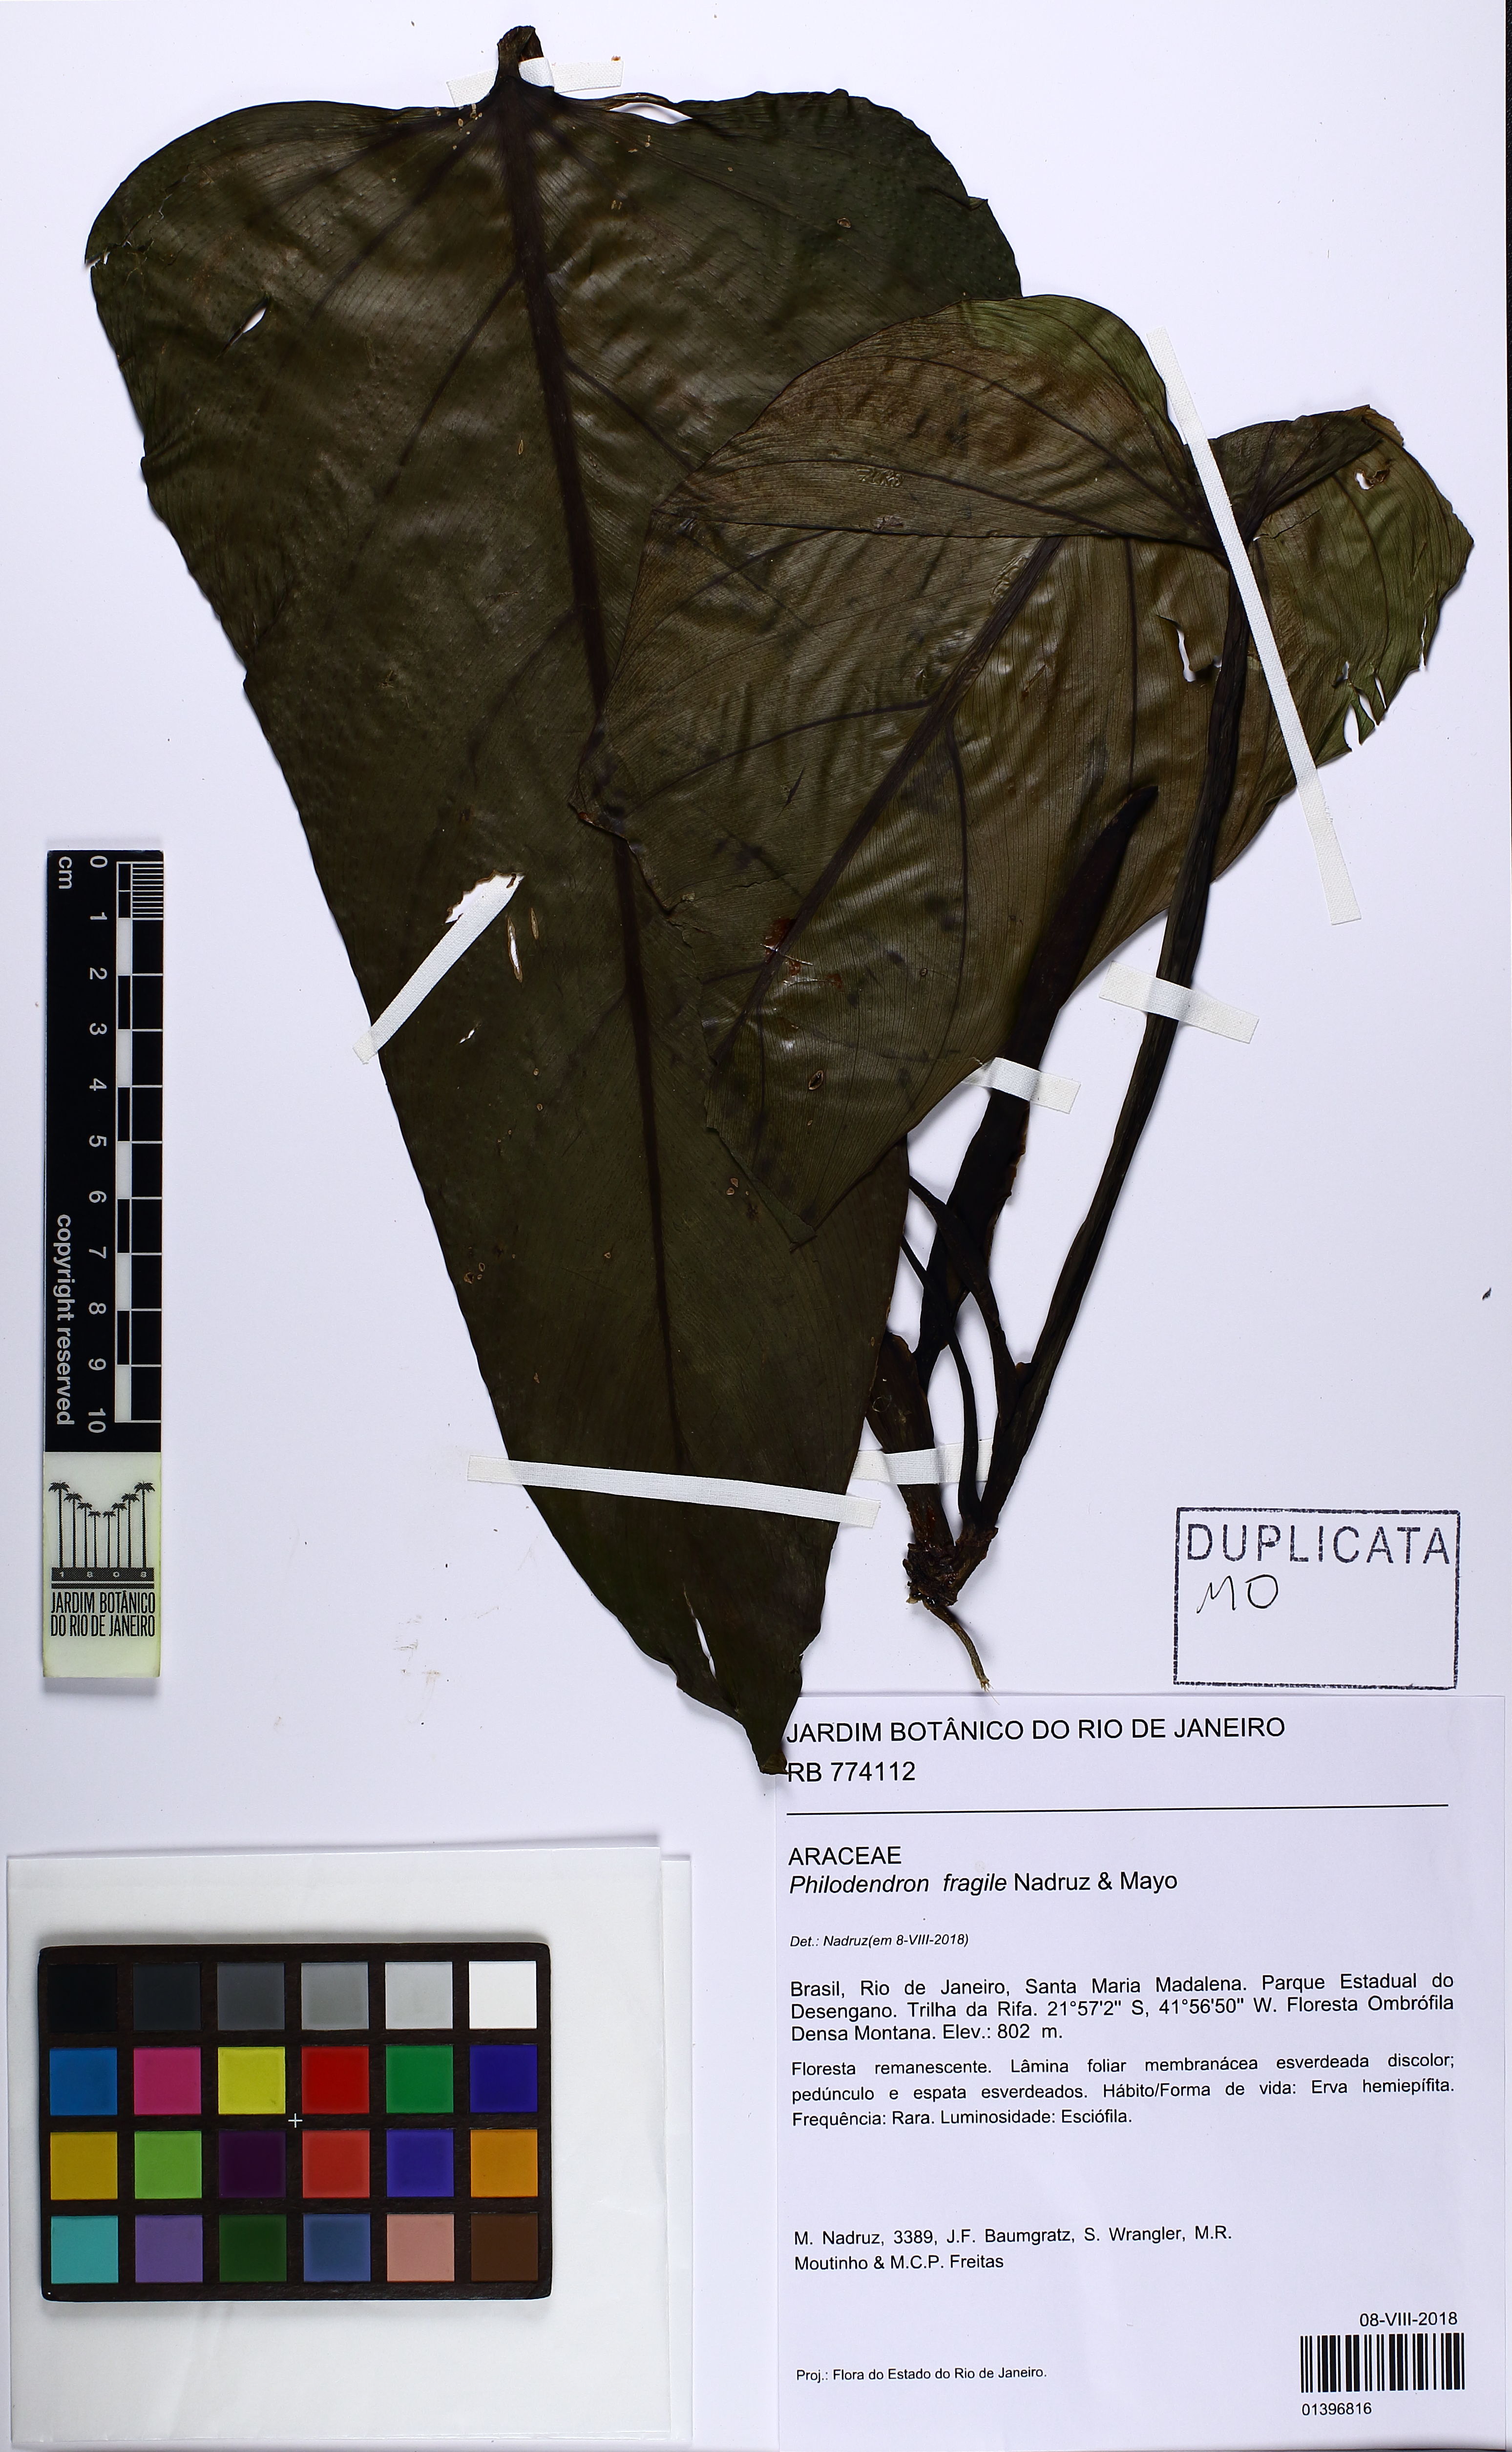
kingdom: Plantae
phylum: Tracheophyta
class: Liliopsida
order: Alismatales
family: Araceae
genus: Philodendron
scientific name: Philodendron fragile
